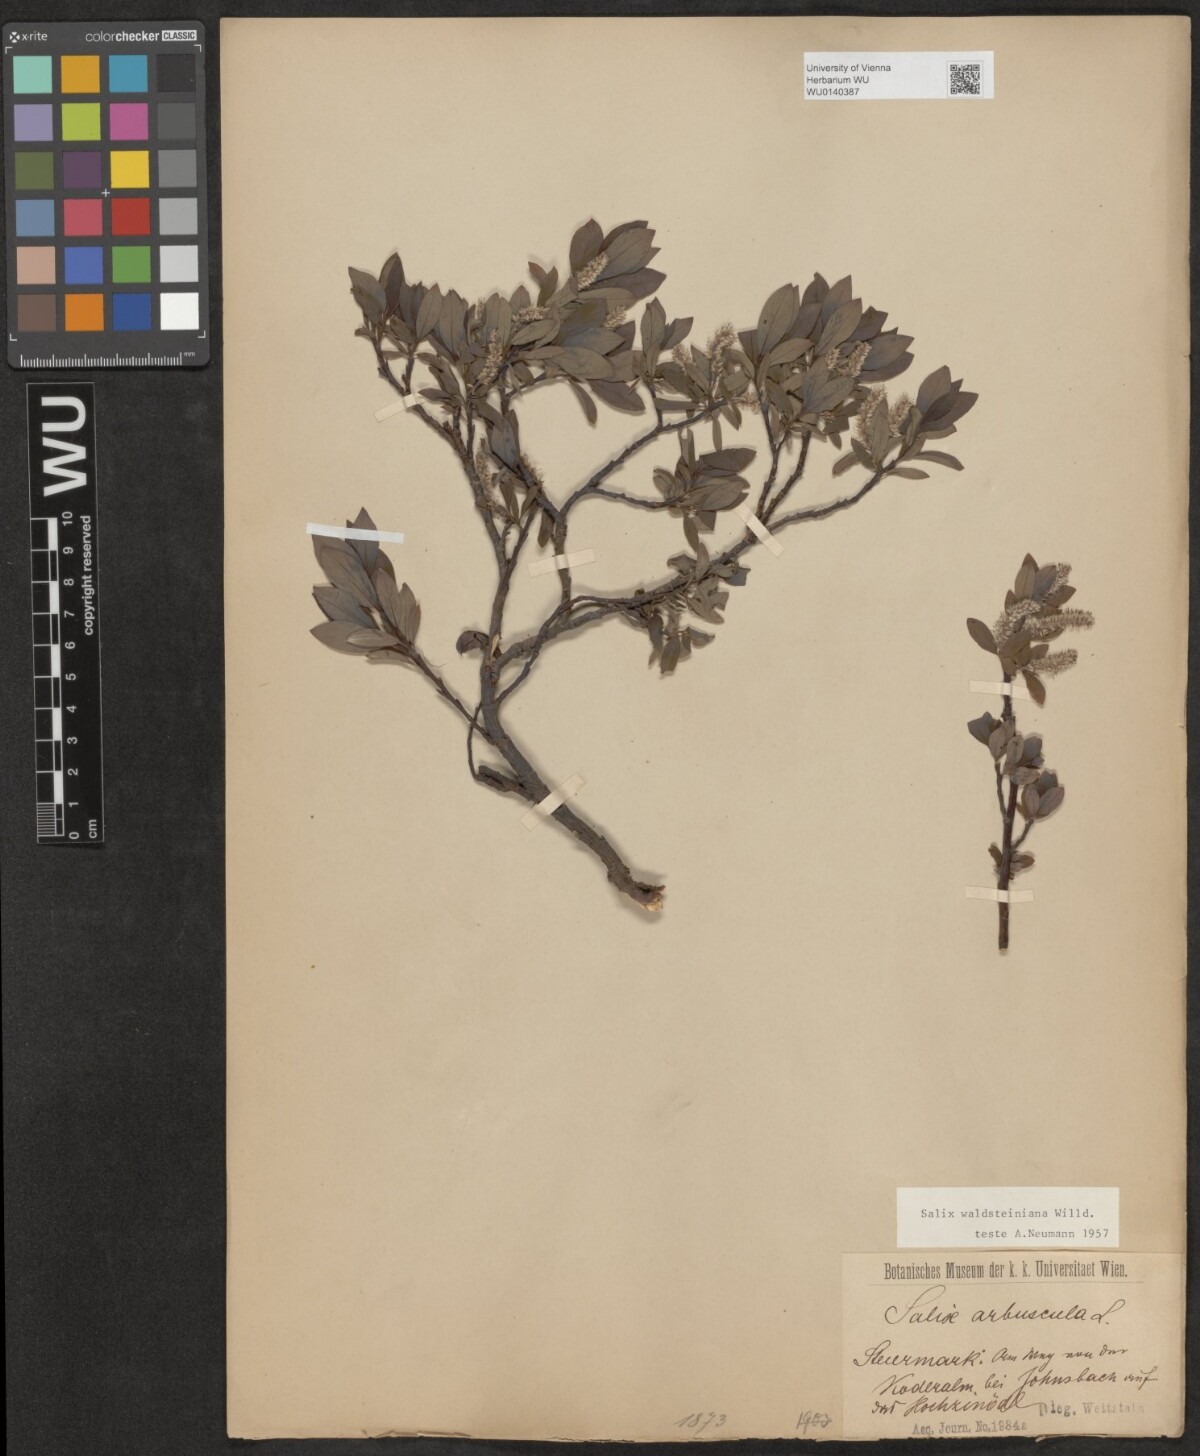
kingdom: Plantae
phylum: Tracheophyta
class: Magnoliopsida
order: Malpighiales
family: Salicaceae
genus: Salix
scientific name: Salix waldsteiniana
